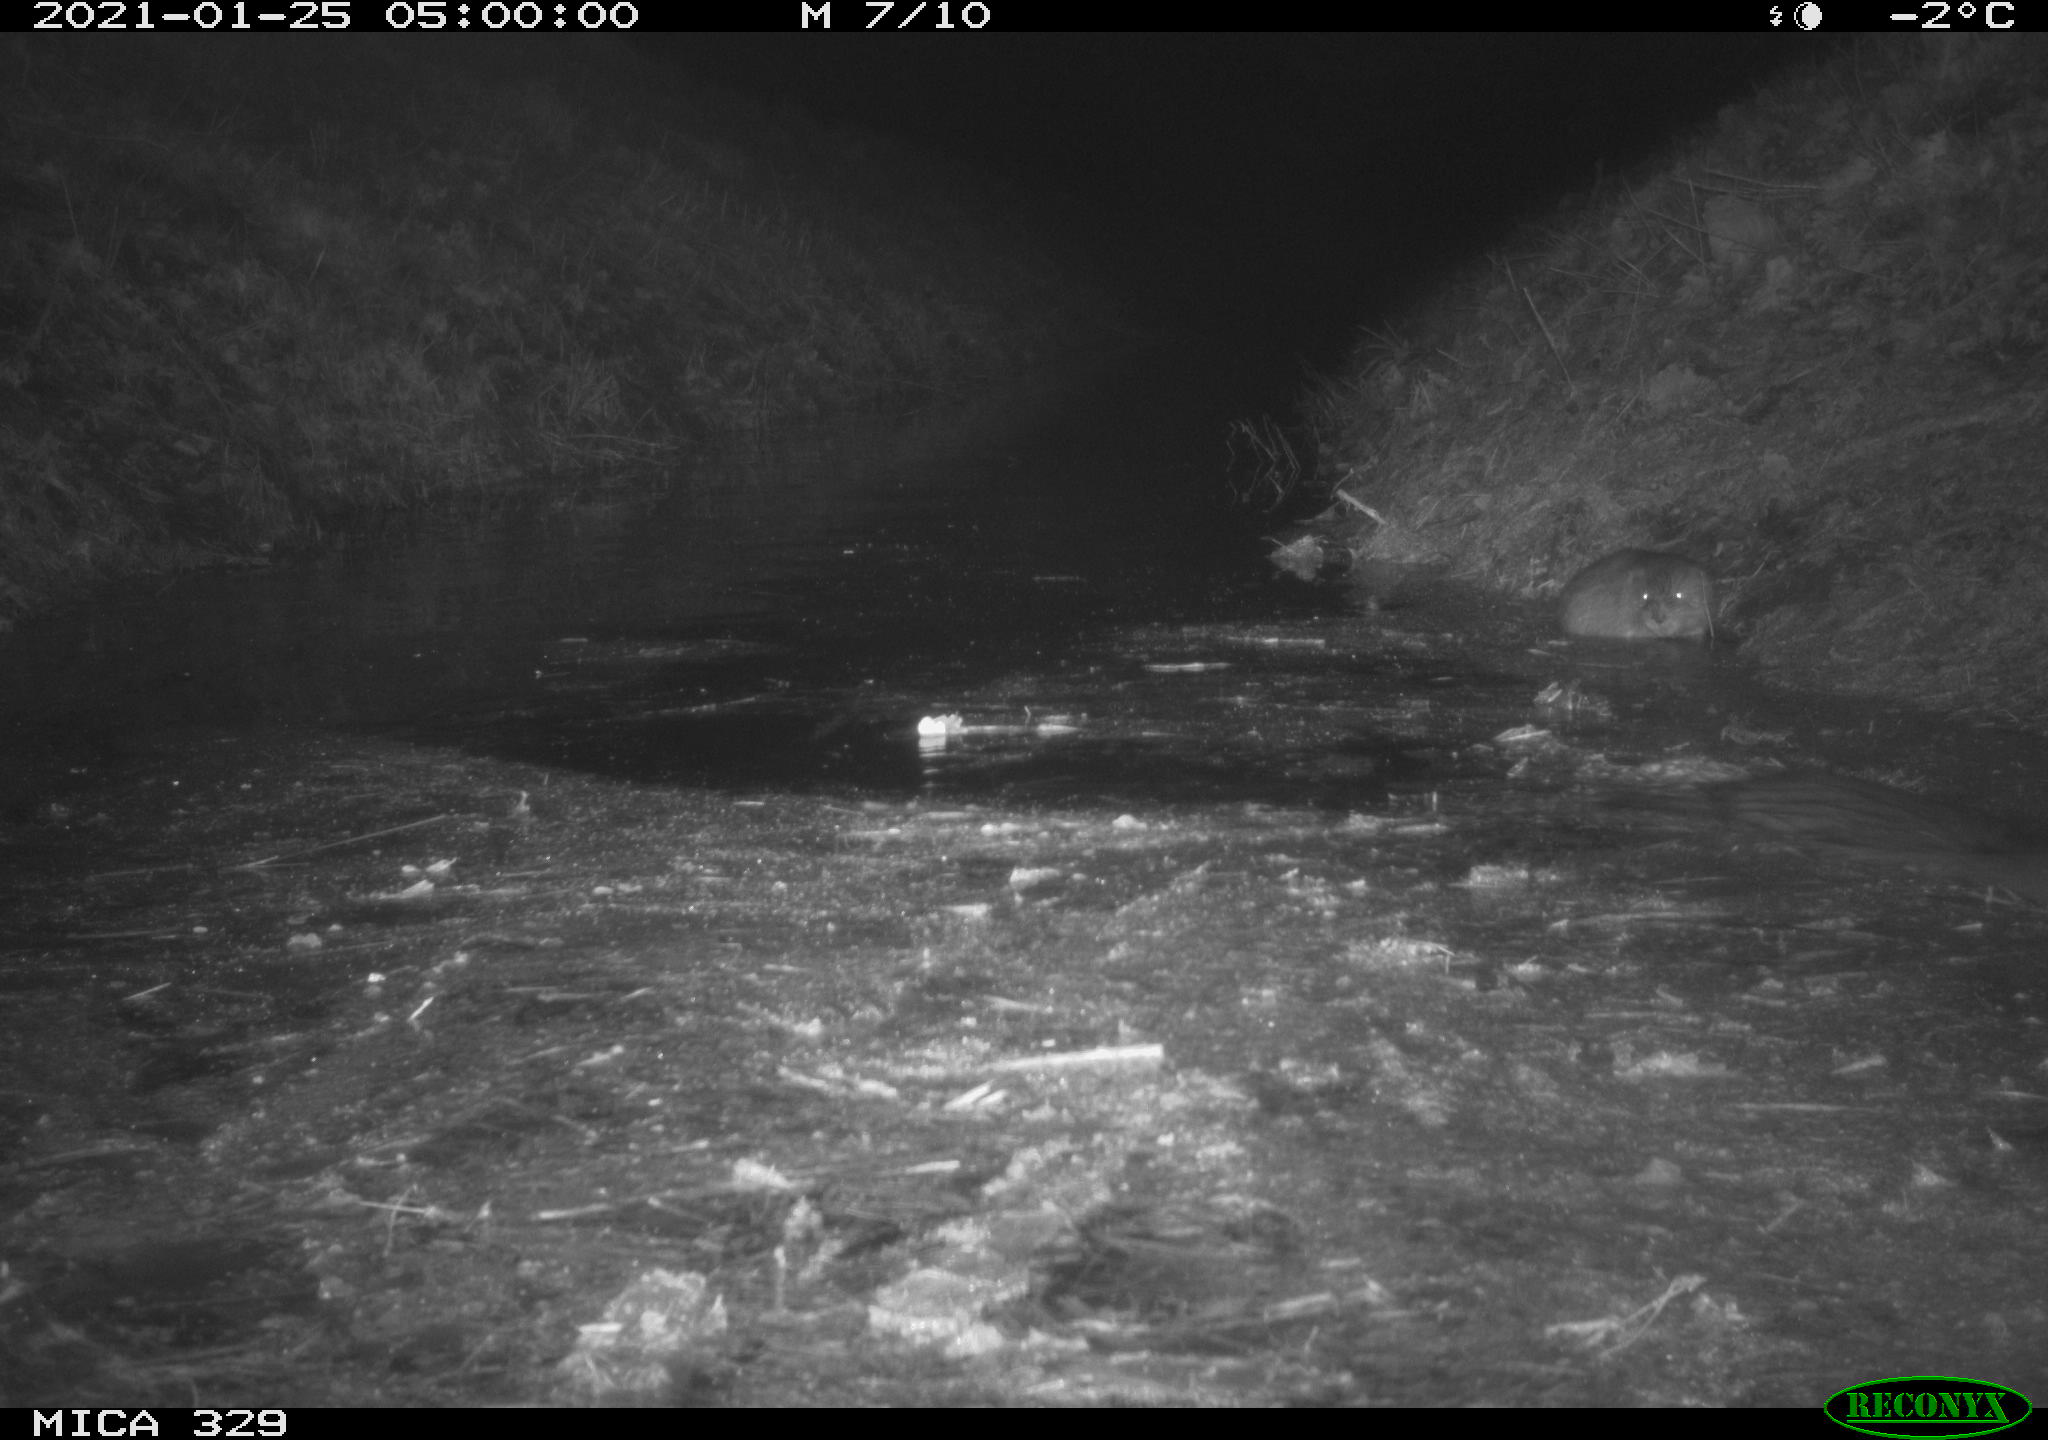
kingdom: Animalia
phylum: Chordata
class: Mammalia
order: Rodentia
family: Cricetidae
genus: Ondatra
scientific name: Ondatra zibethicus
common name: Muskrat
